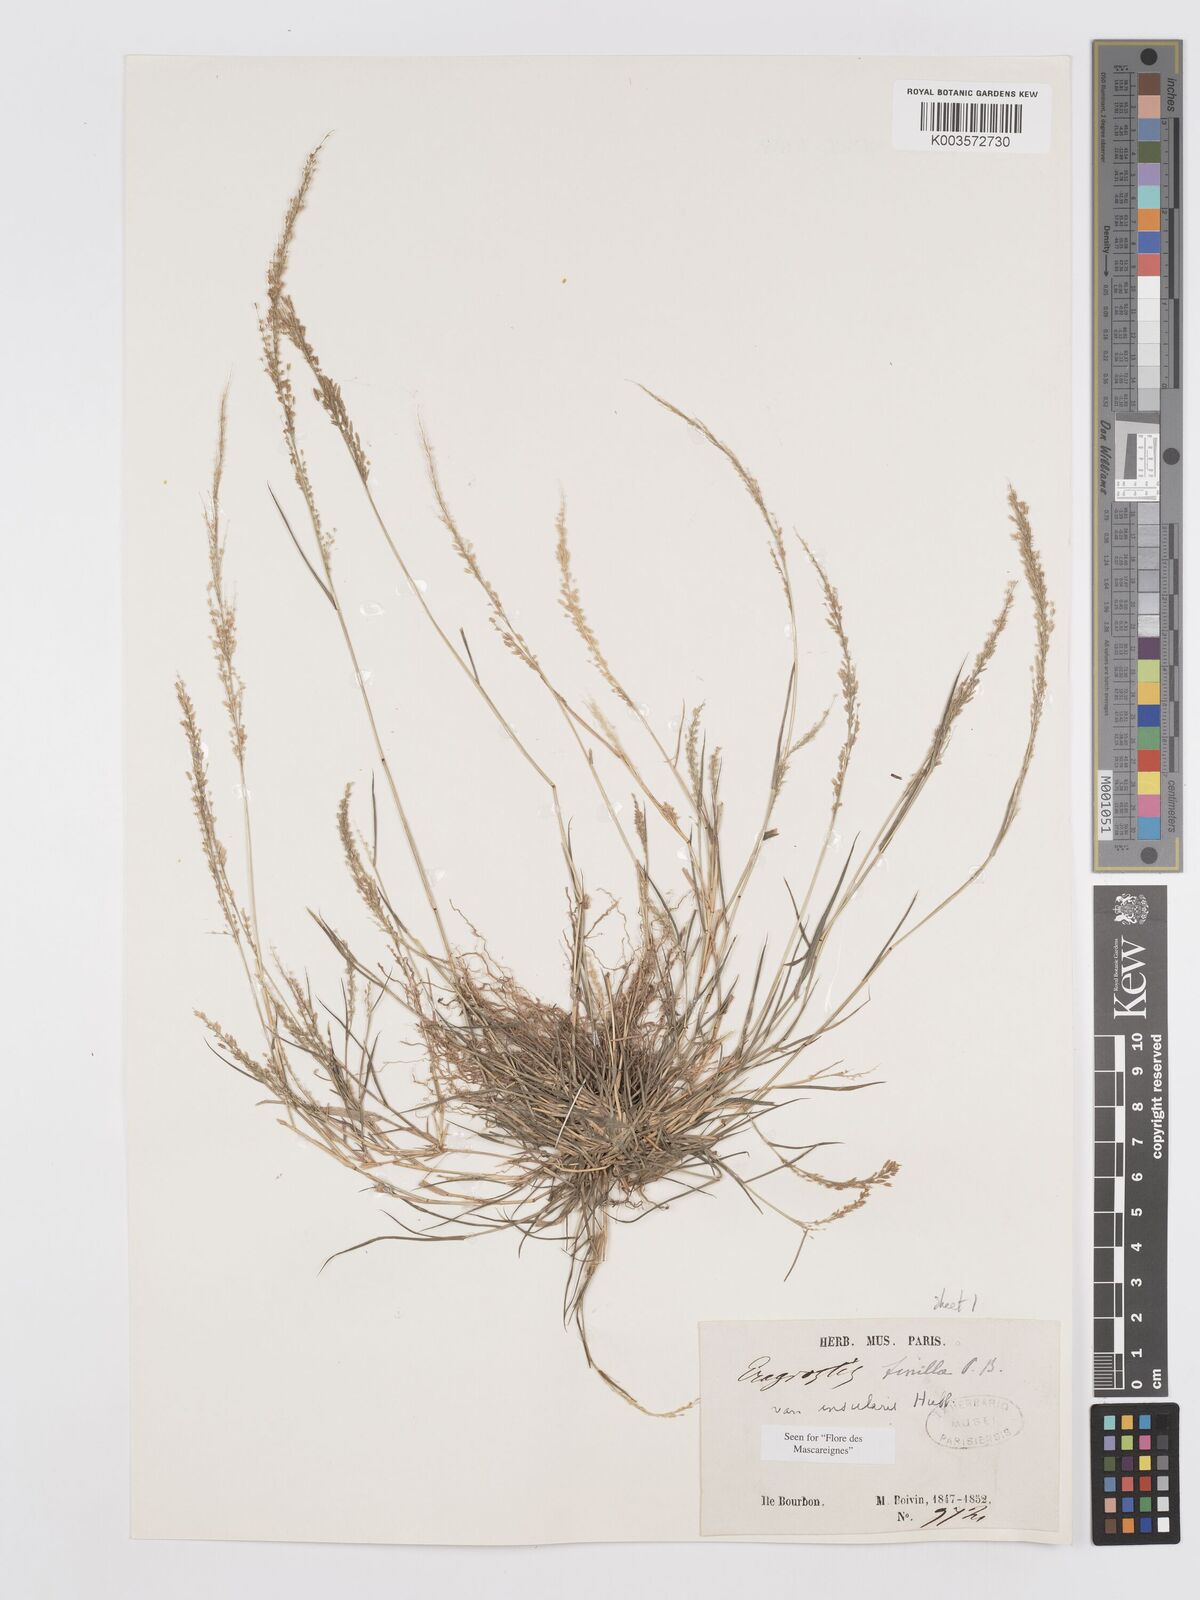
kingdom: Plantae
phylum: Tracheophyta
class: Liliopsida
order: Poales
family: Poaceae
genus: Eragrostis
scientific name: Eragrostis tenella
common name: Japanese lovegrass
